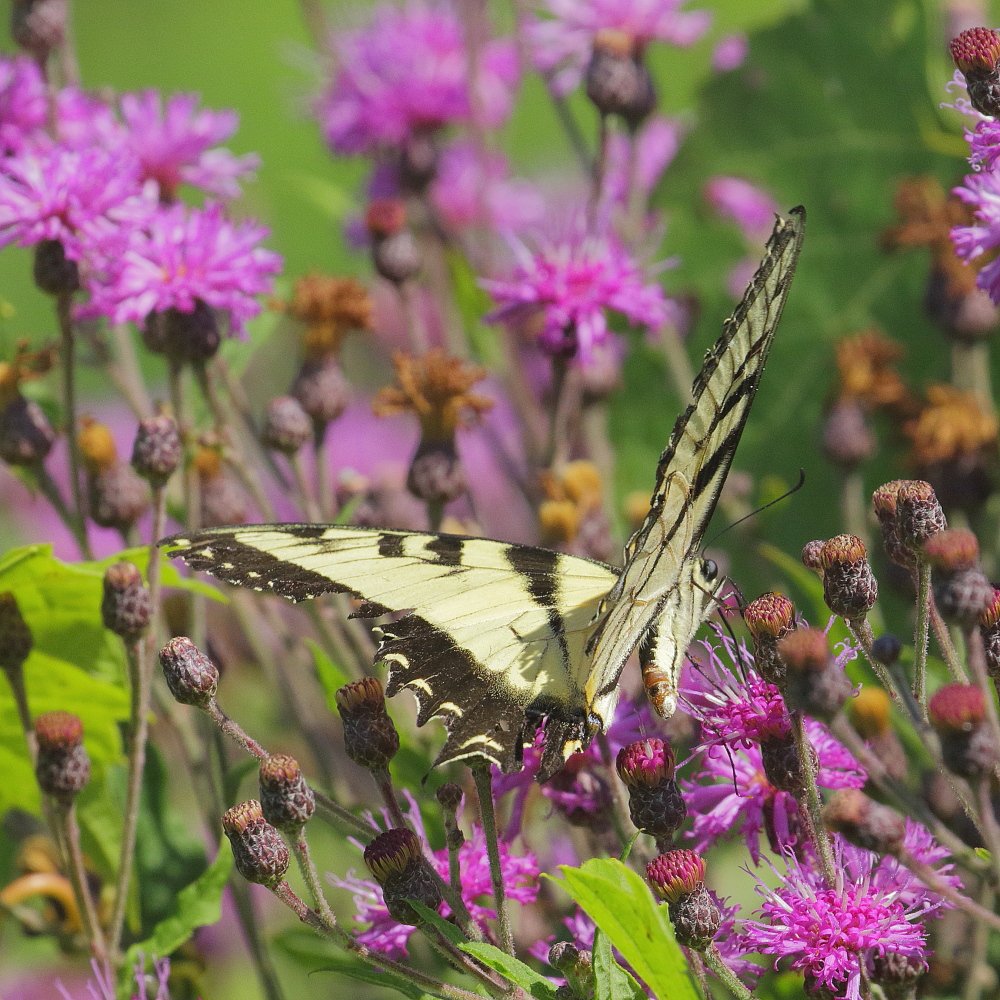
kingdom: Animalia
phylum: Arthropoda
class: Insecta
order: Lepidoptera
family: Papilionidae
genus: Pterourus
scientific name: Pterourus glaucus
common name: Eastern Tiger Swallowtail
